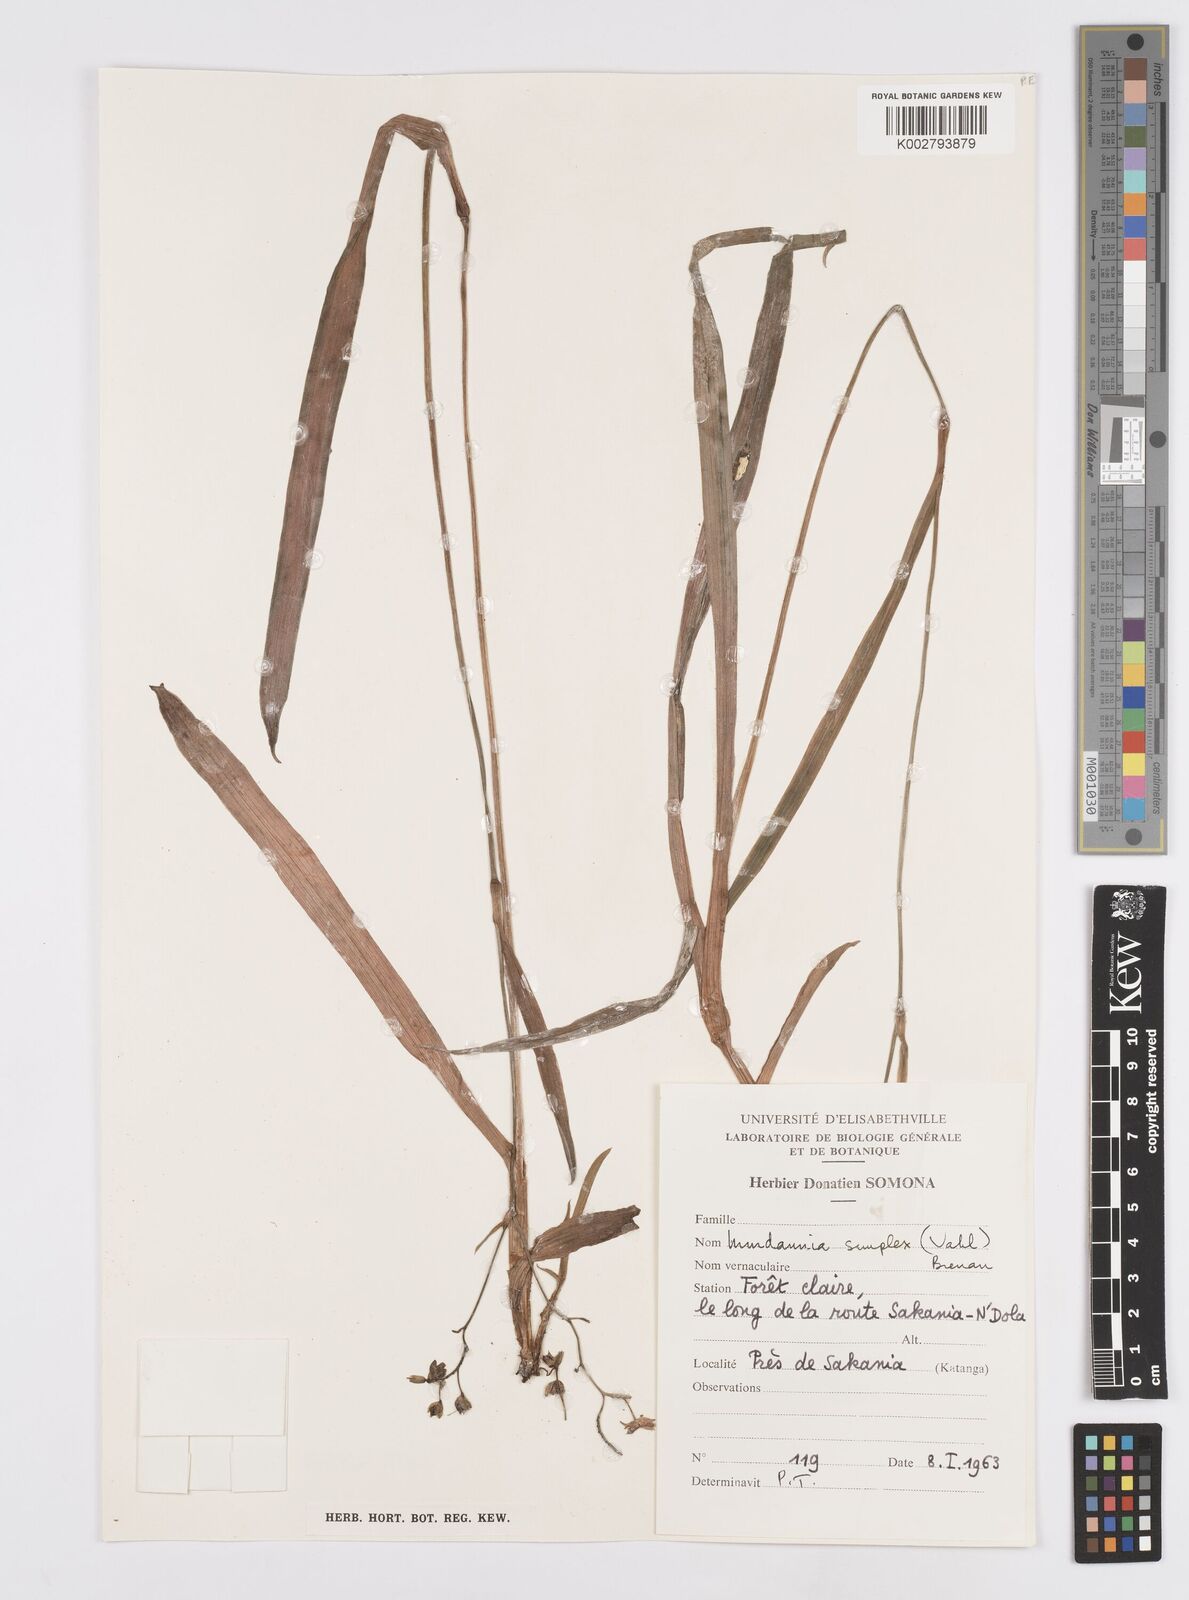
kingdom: Plantae
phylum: Tracheophyta
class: Liliopsida
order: Commelinales
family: Commelinaceae
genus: Murdannia
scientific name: Murdannia simplex
